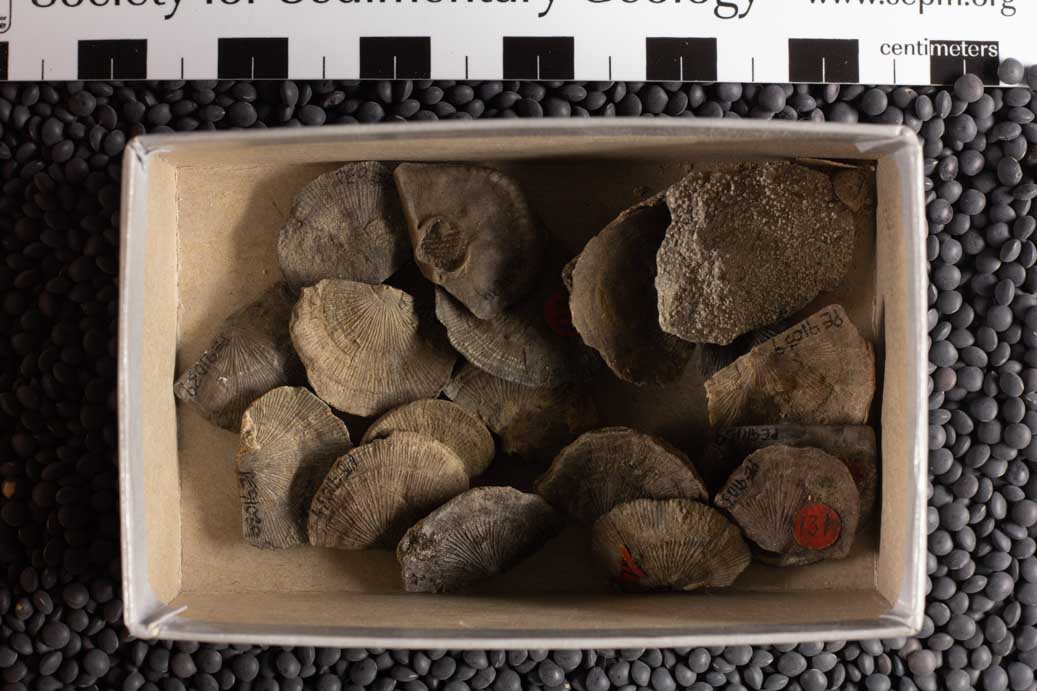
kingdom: Animalia
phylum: Brachiopoda
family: Streptorhynchidae
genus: Streptorhynchus
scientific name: Streptorhynchus
